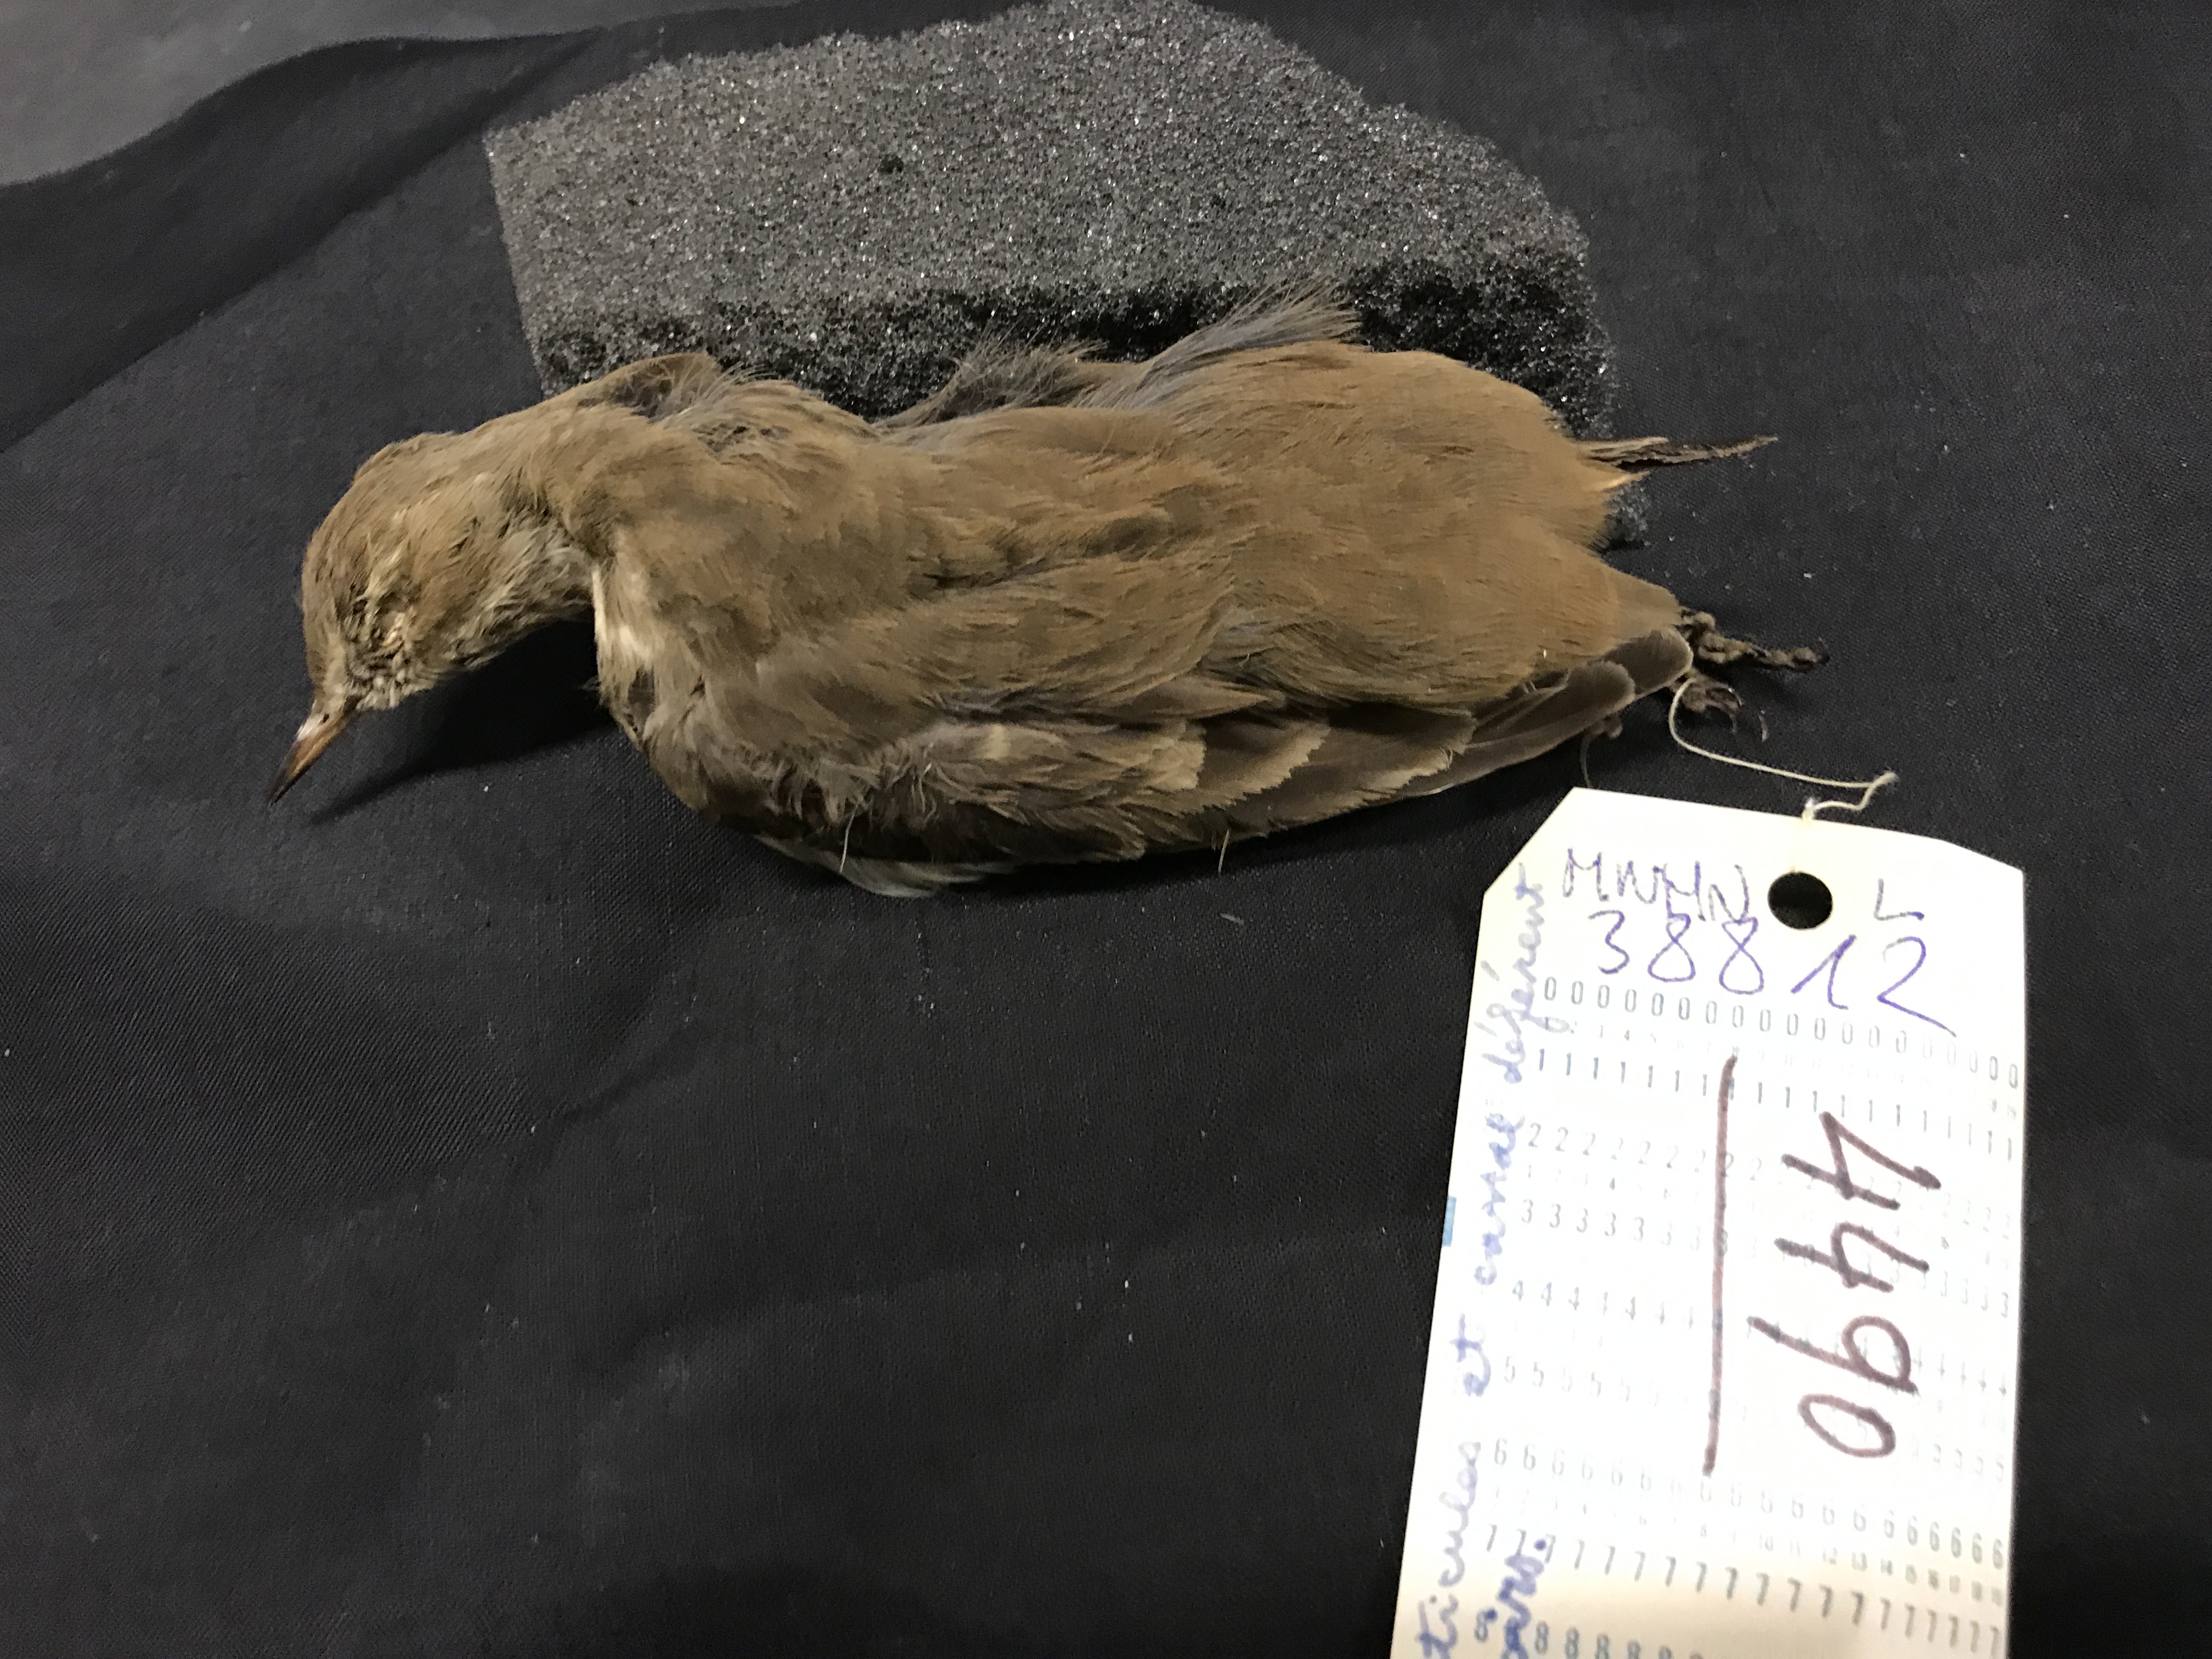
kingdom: Animalia
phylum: Chordata
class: Aves
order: Passeriformes
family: Motacillidae
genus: Anthus
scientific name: Anthus spinoletta
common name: Water pipit
